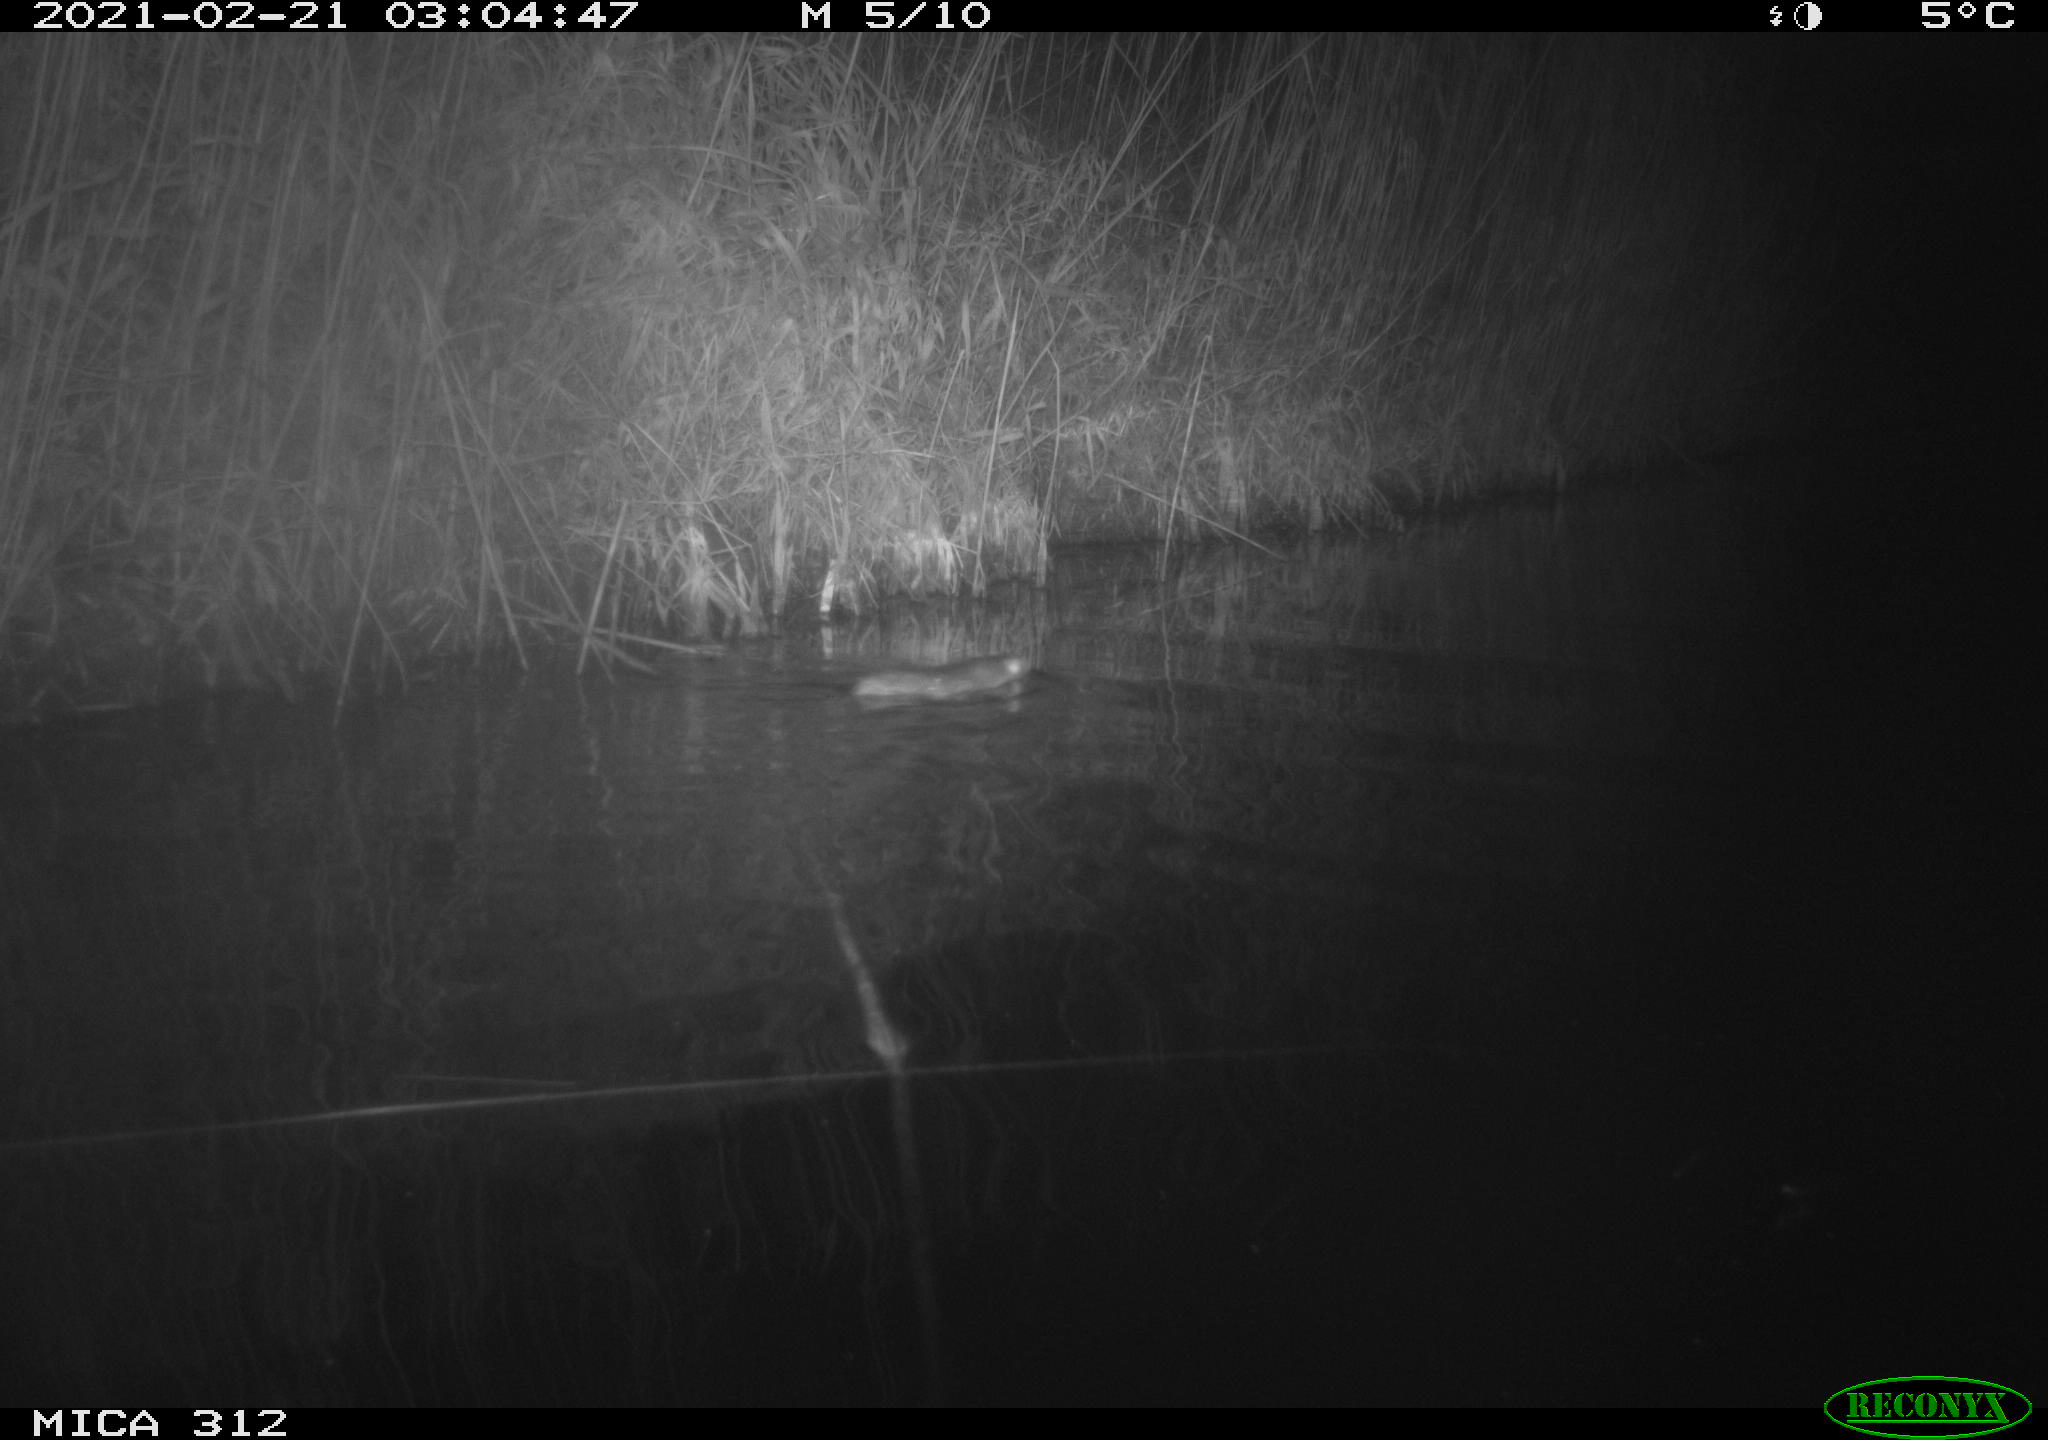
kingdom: Animalia
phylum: Chordata
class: Mammalia
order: Rodentia
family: Muridae
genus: Rattus
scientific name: Rattus norvegicus
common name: Brown rat
